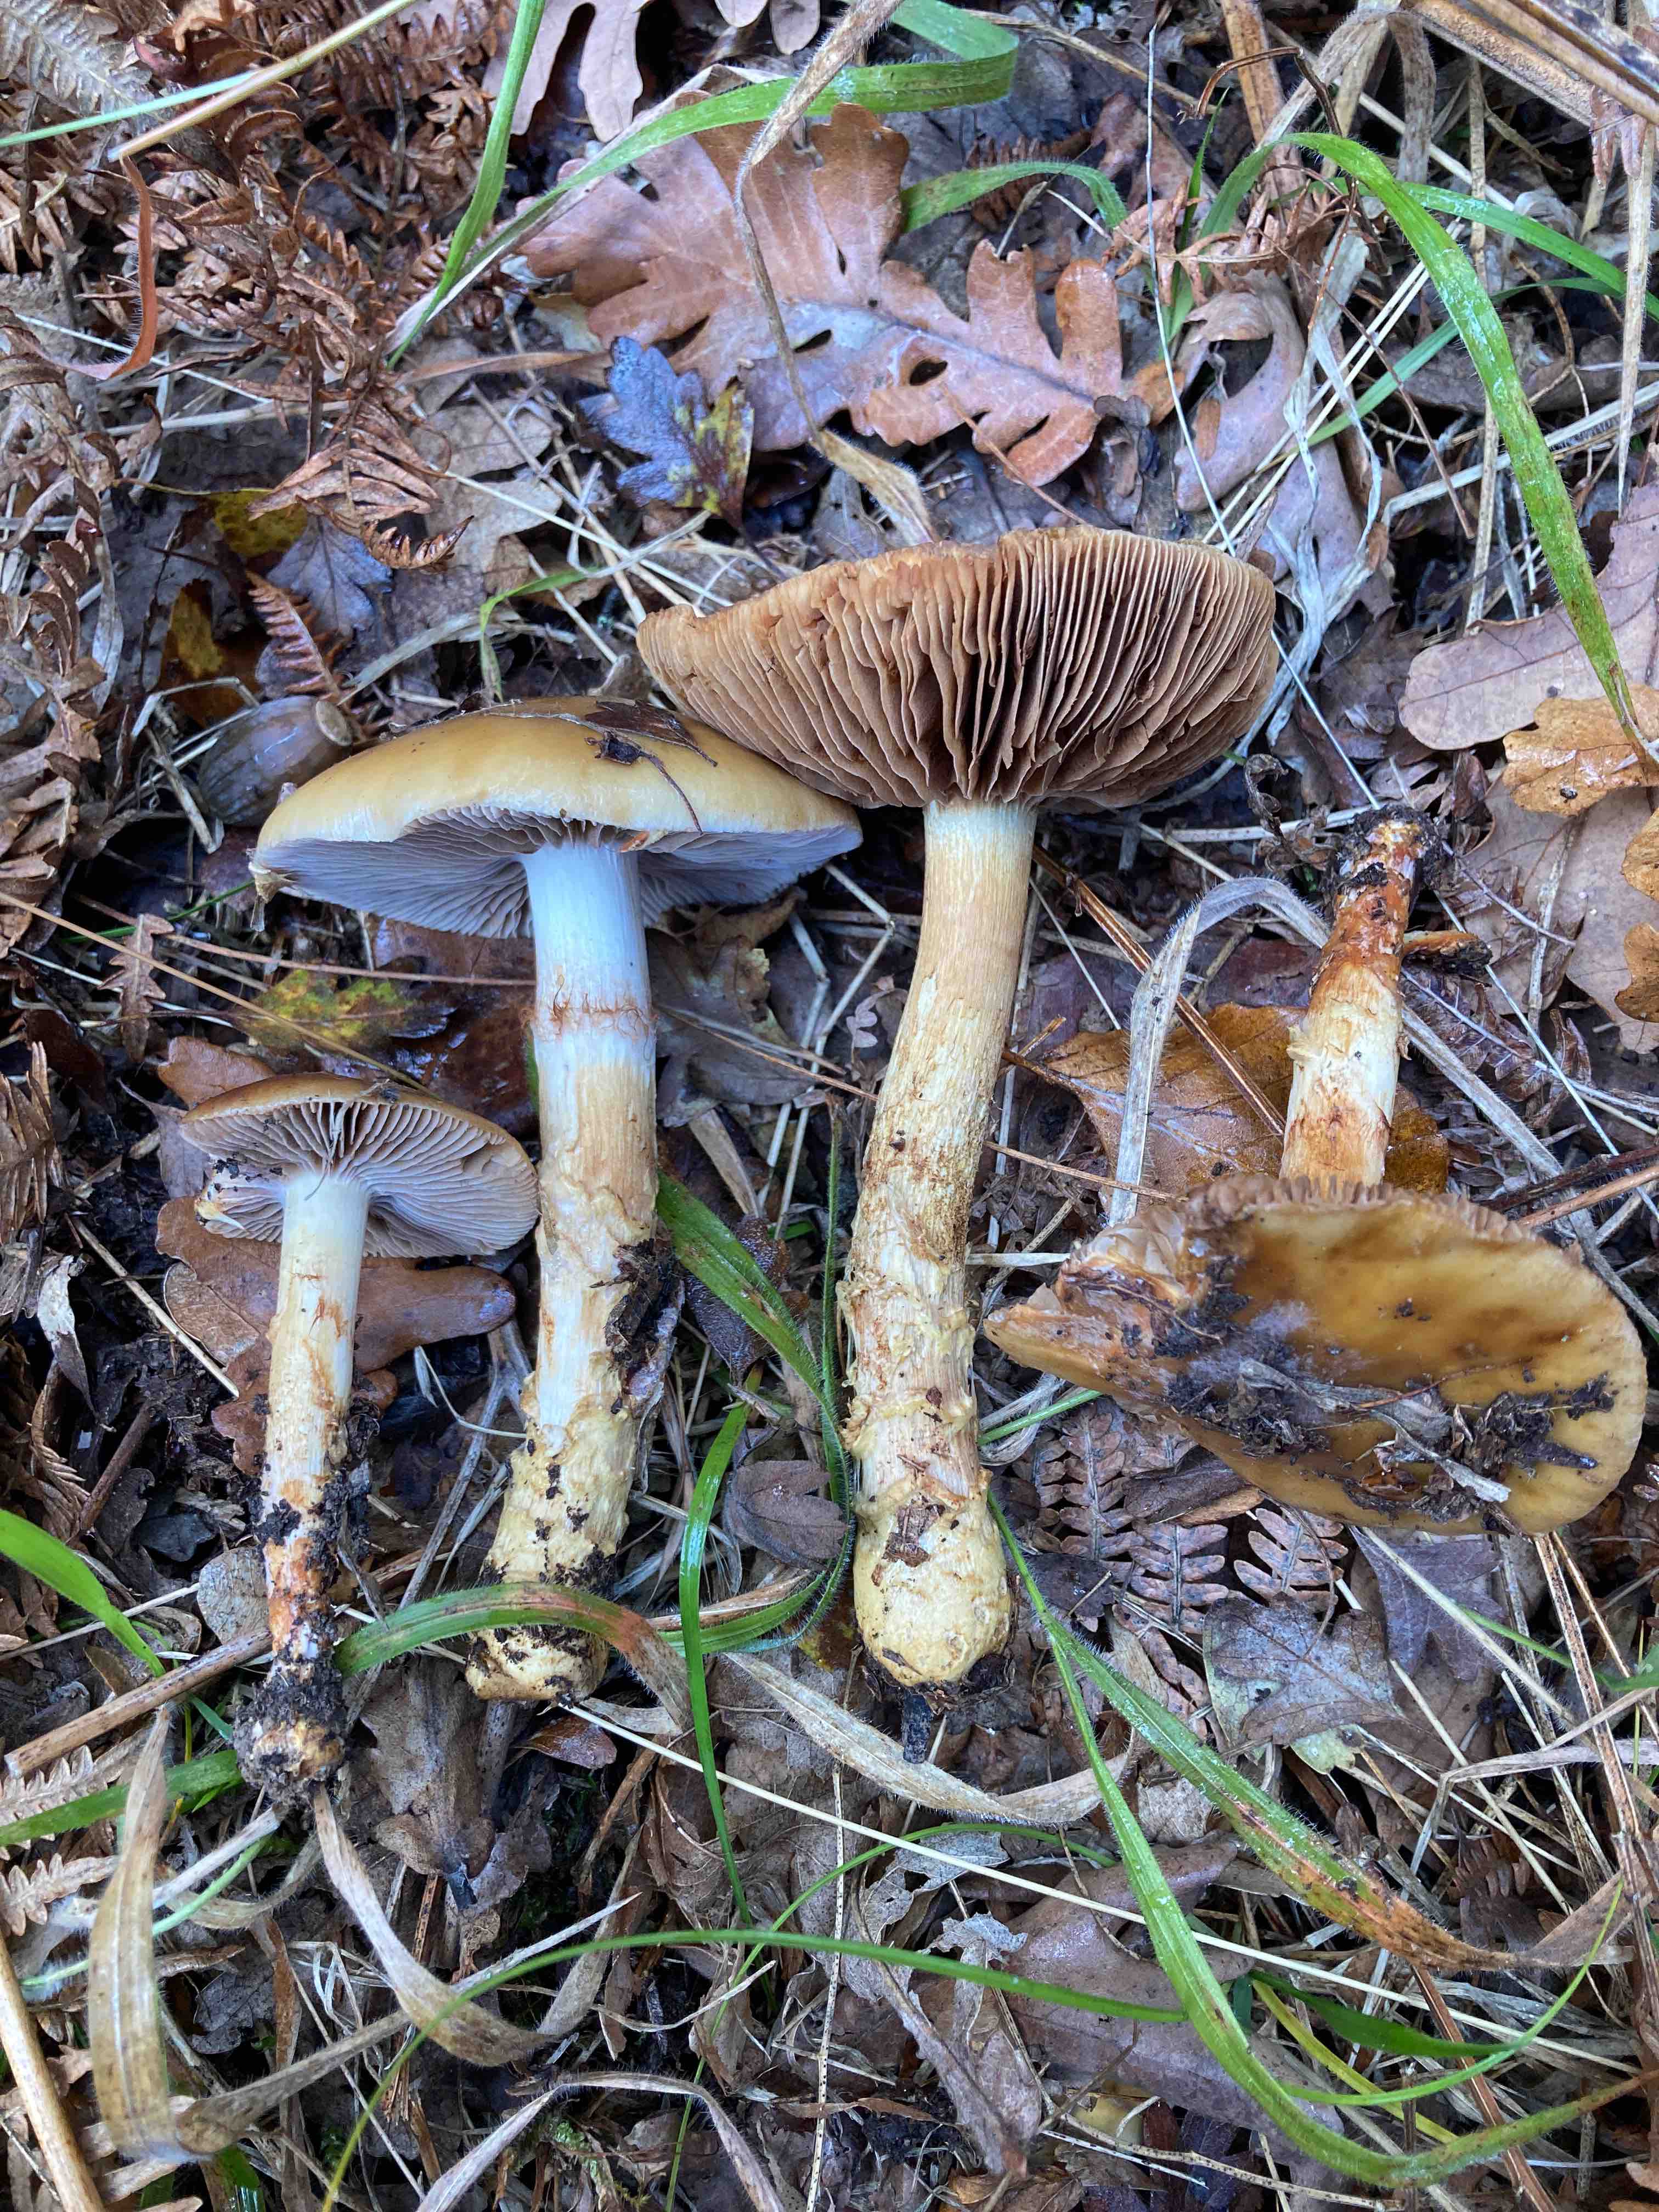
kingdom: Fungi
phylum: Basidiomycota
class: Agaricomycetes
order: Agaricales
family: Cortinariaceae
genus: Cortinarius
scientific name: Cortinarius trivialis
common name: Girdled webcap
